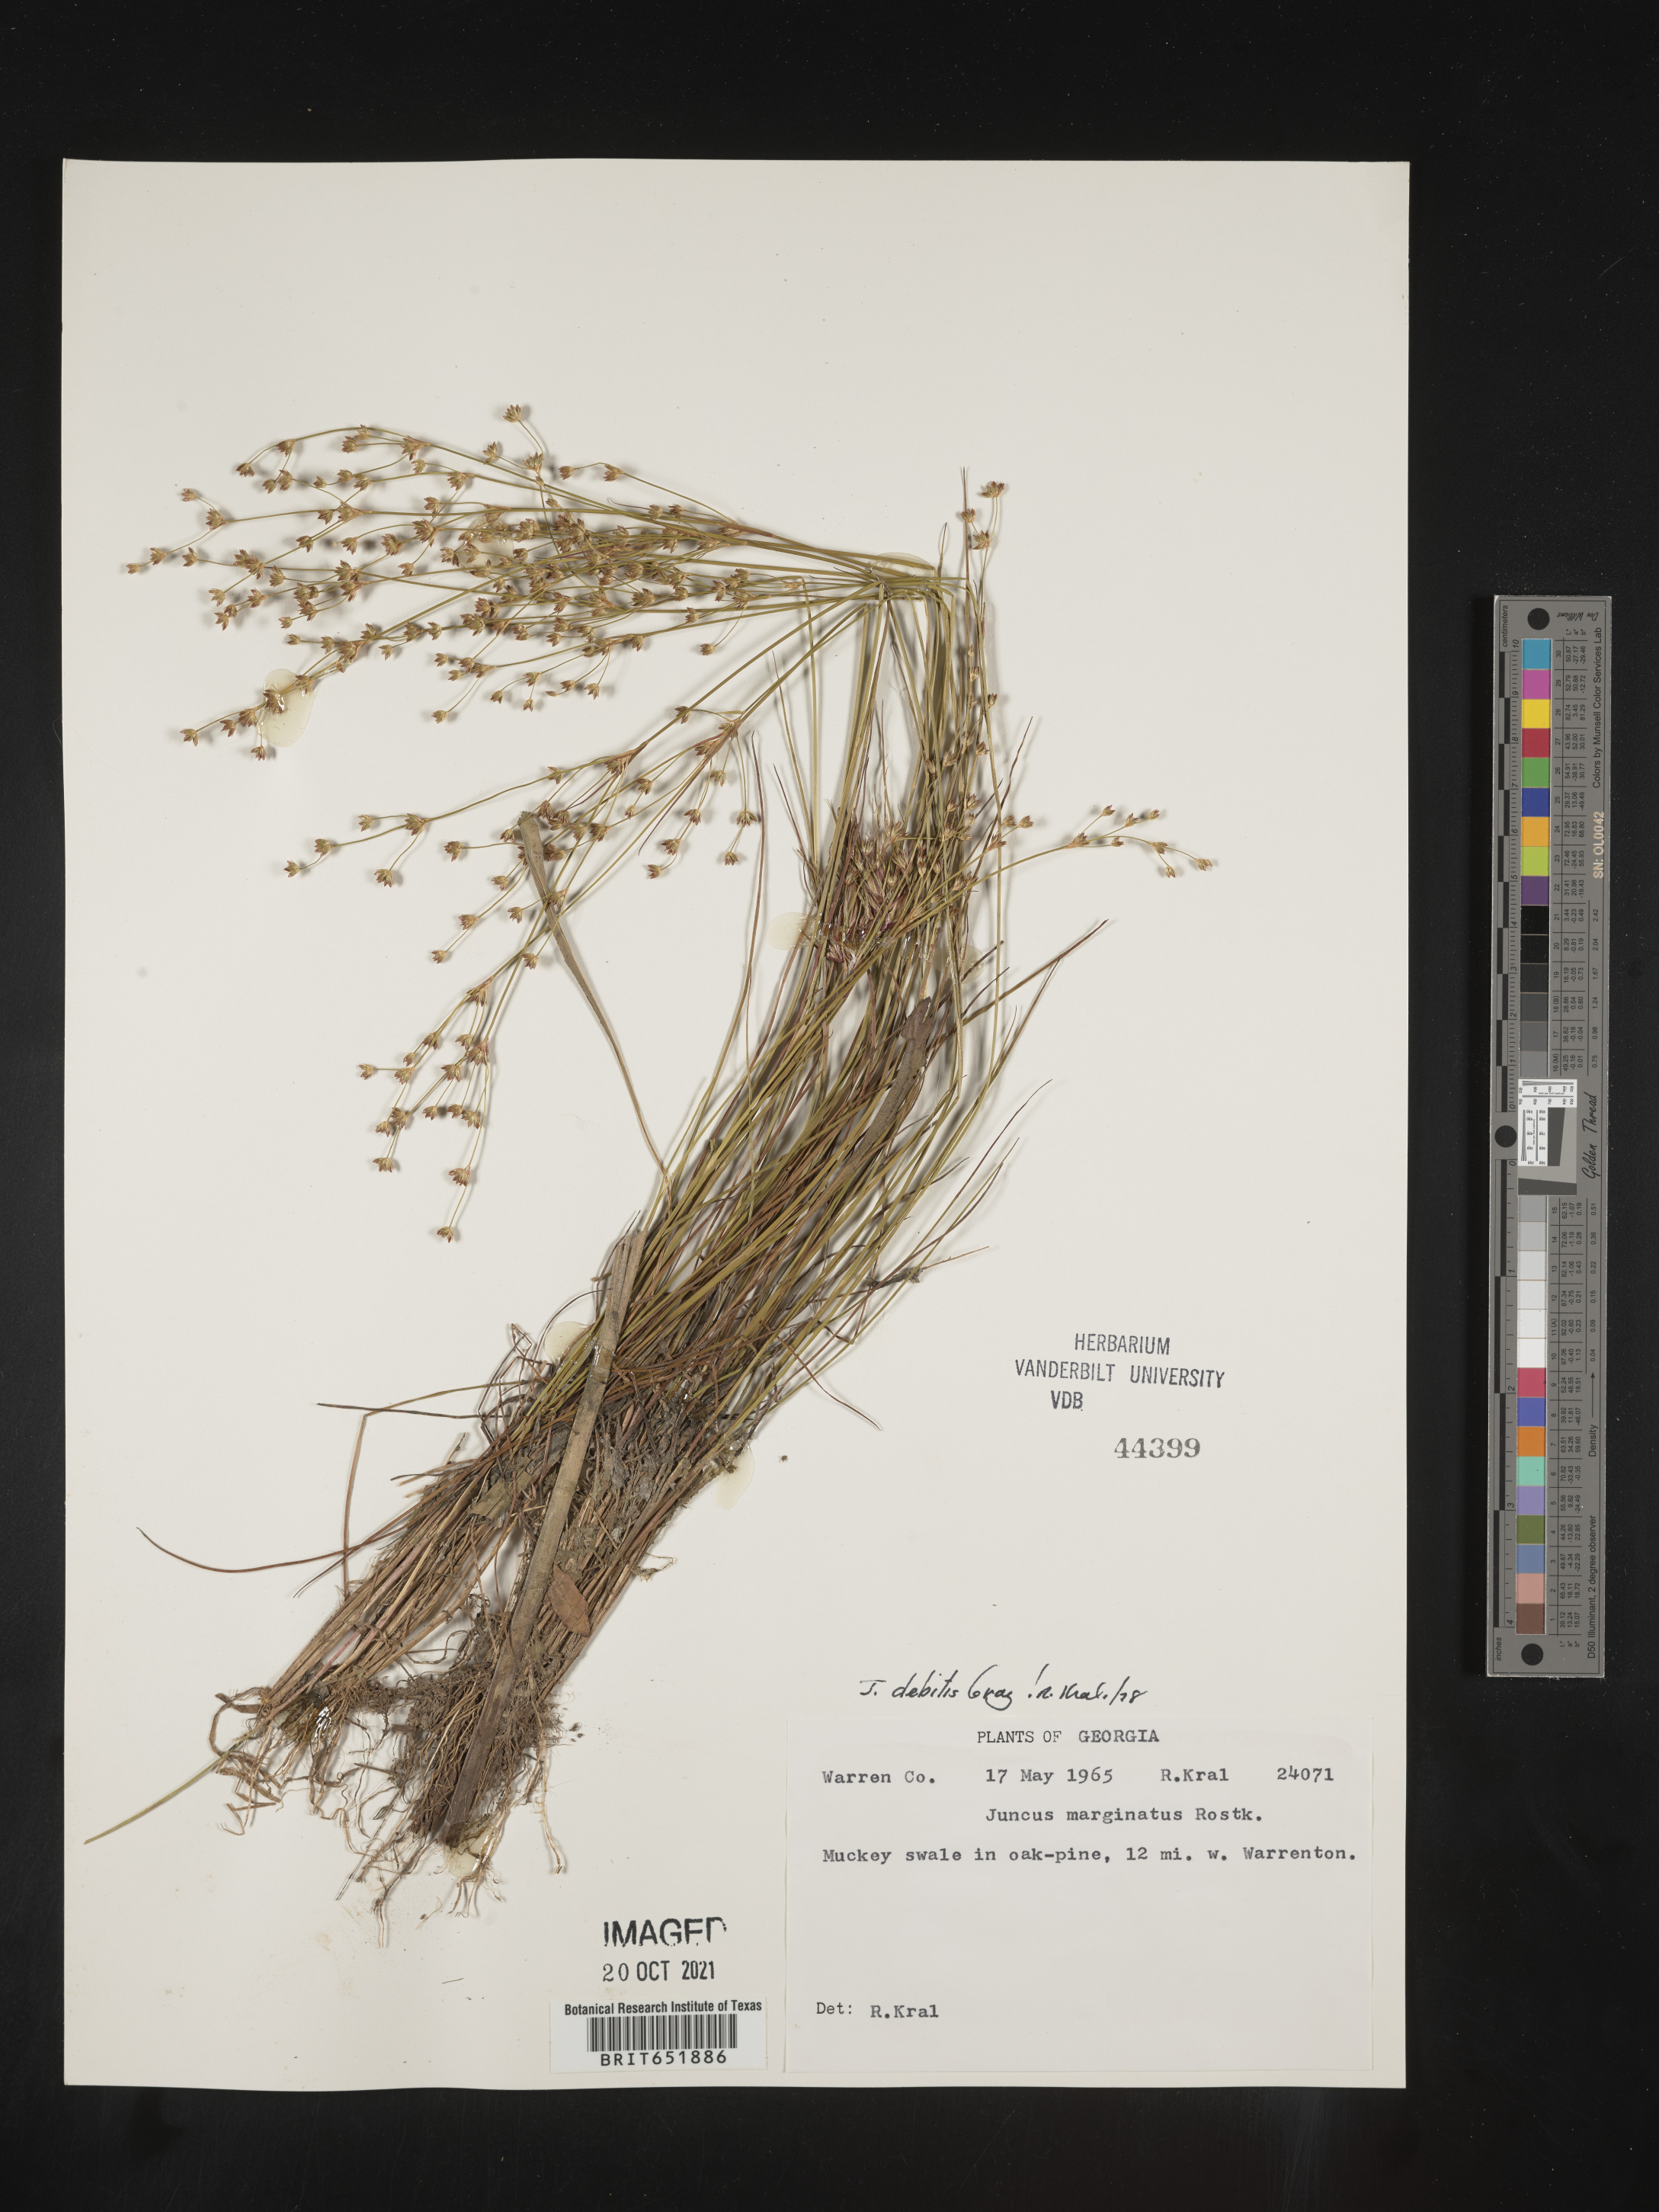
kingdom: Plantae
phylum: Tracheophyta
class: Liliopsida
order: Poales
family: Juncaceae
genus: Juncus
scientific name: Juncus debilis
